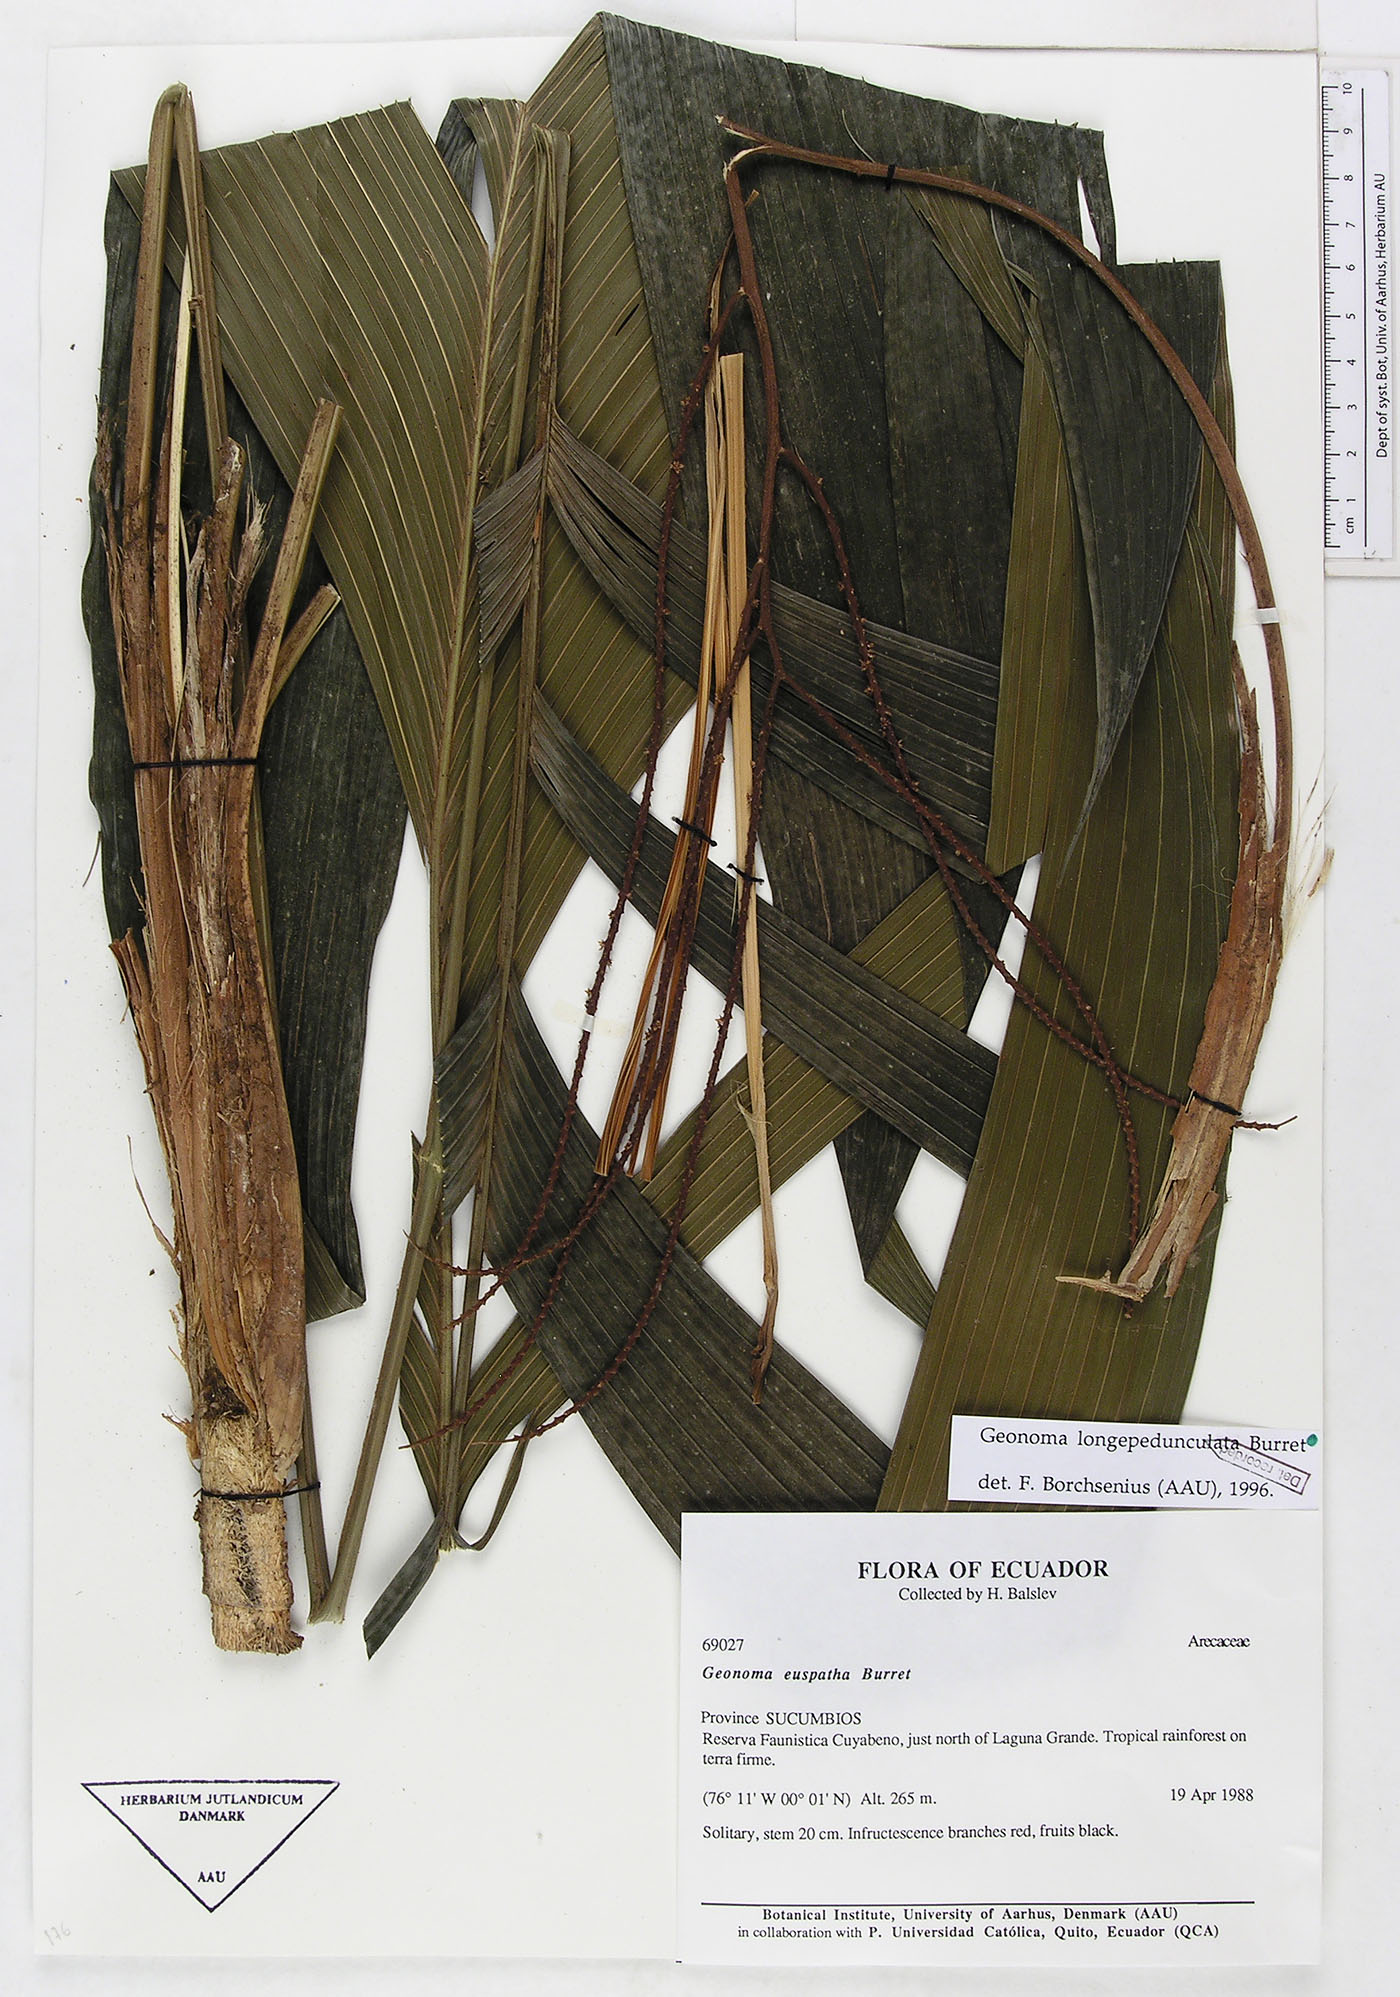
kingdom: Plantae
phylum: Tracheophyta
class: Liliopsida
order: Arecales
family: Arecaceae
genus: Geonoma
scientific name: Geonoma longepedunculata
